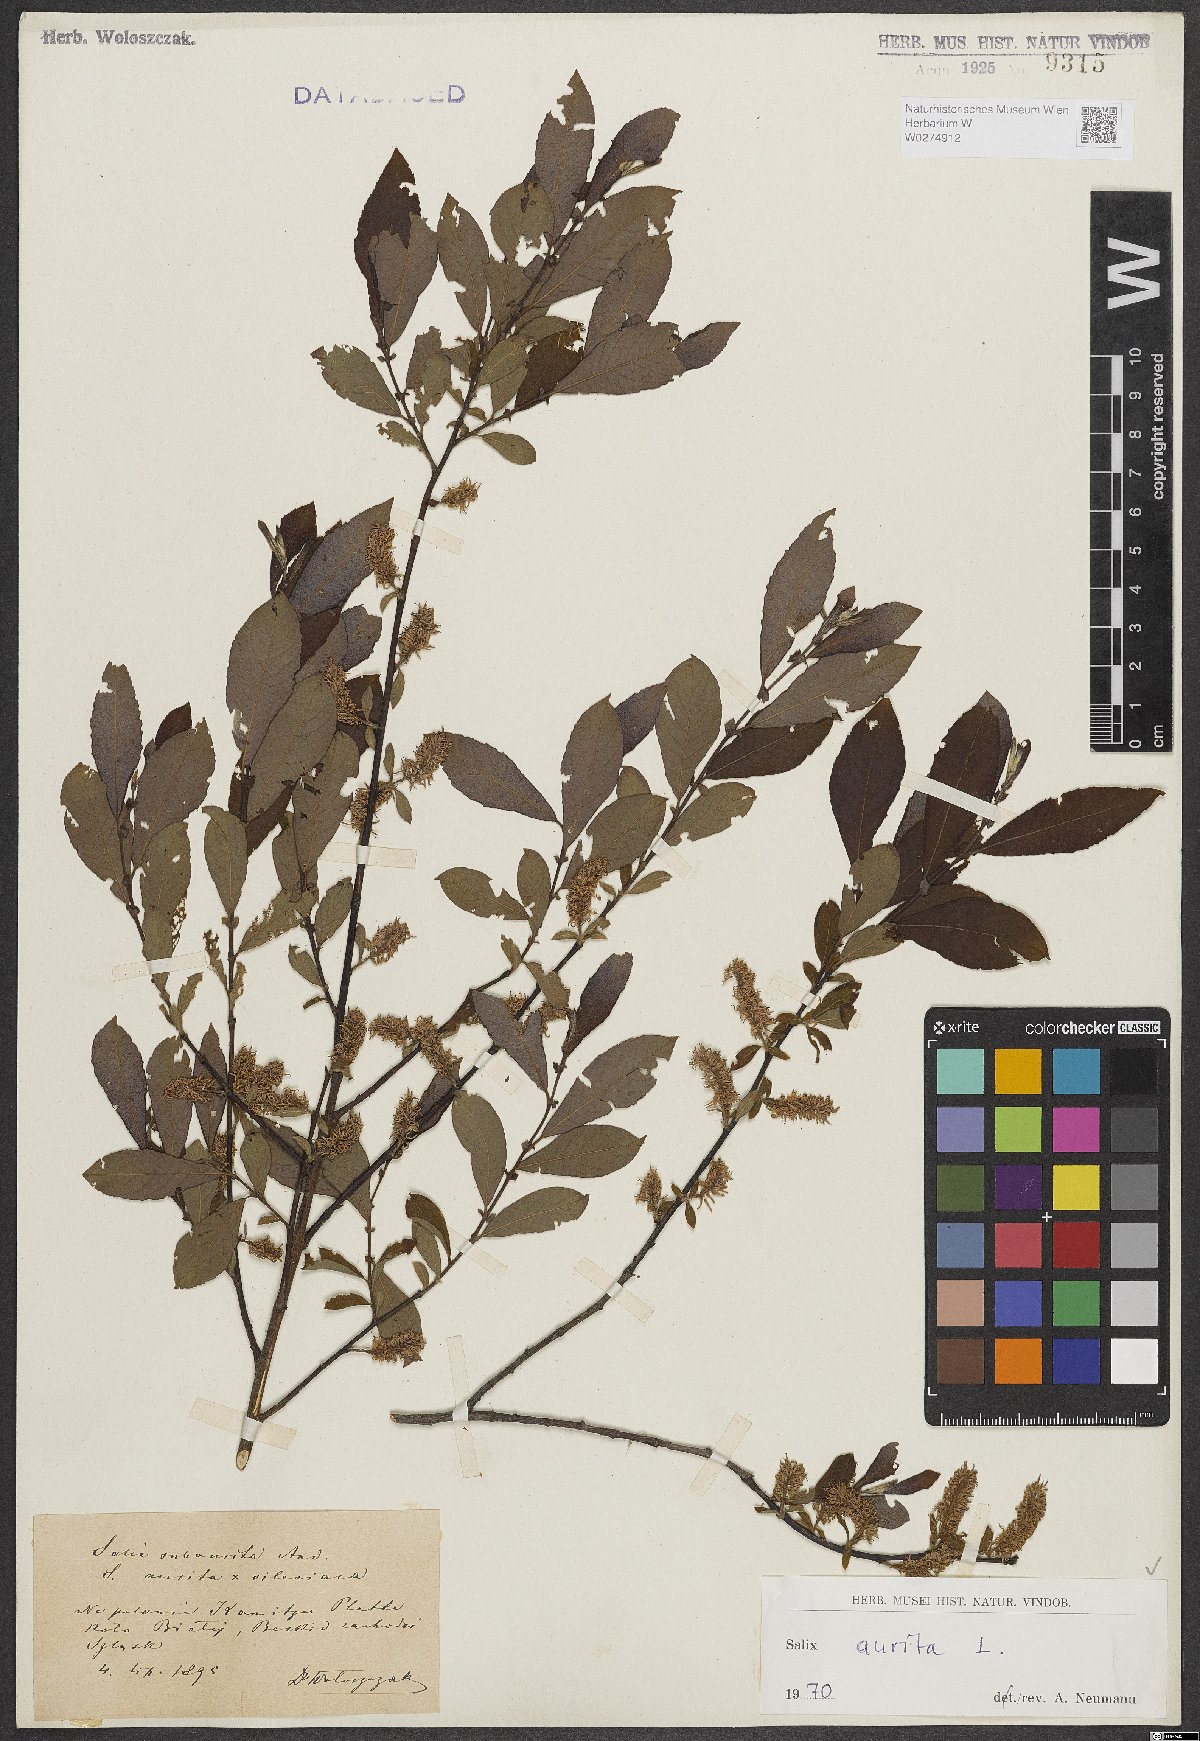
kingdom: Plantae
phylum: Tracheophyta
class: Magnoliopsida
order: Malpighiales
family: Salicaceae
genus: Salix
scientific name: Salix aurita
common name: Eared willow
